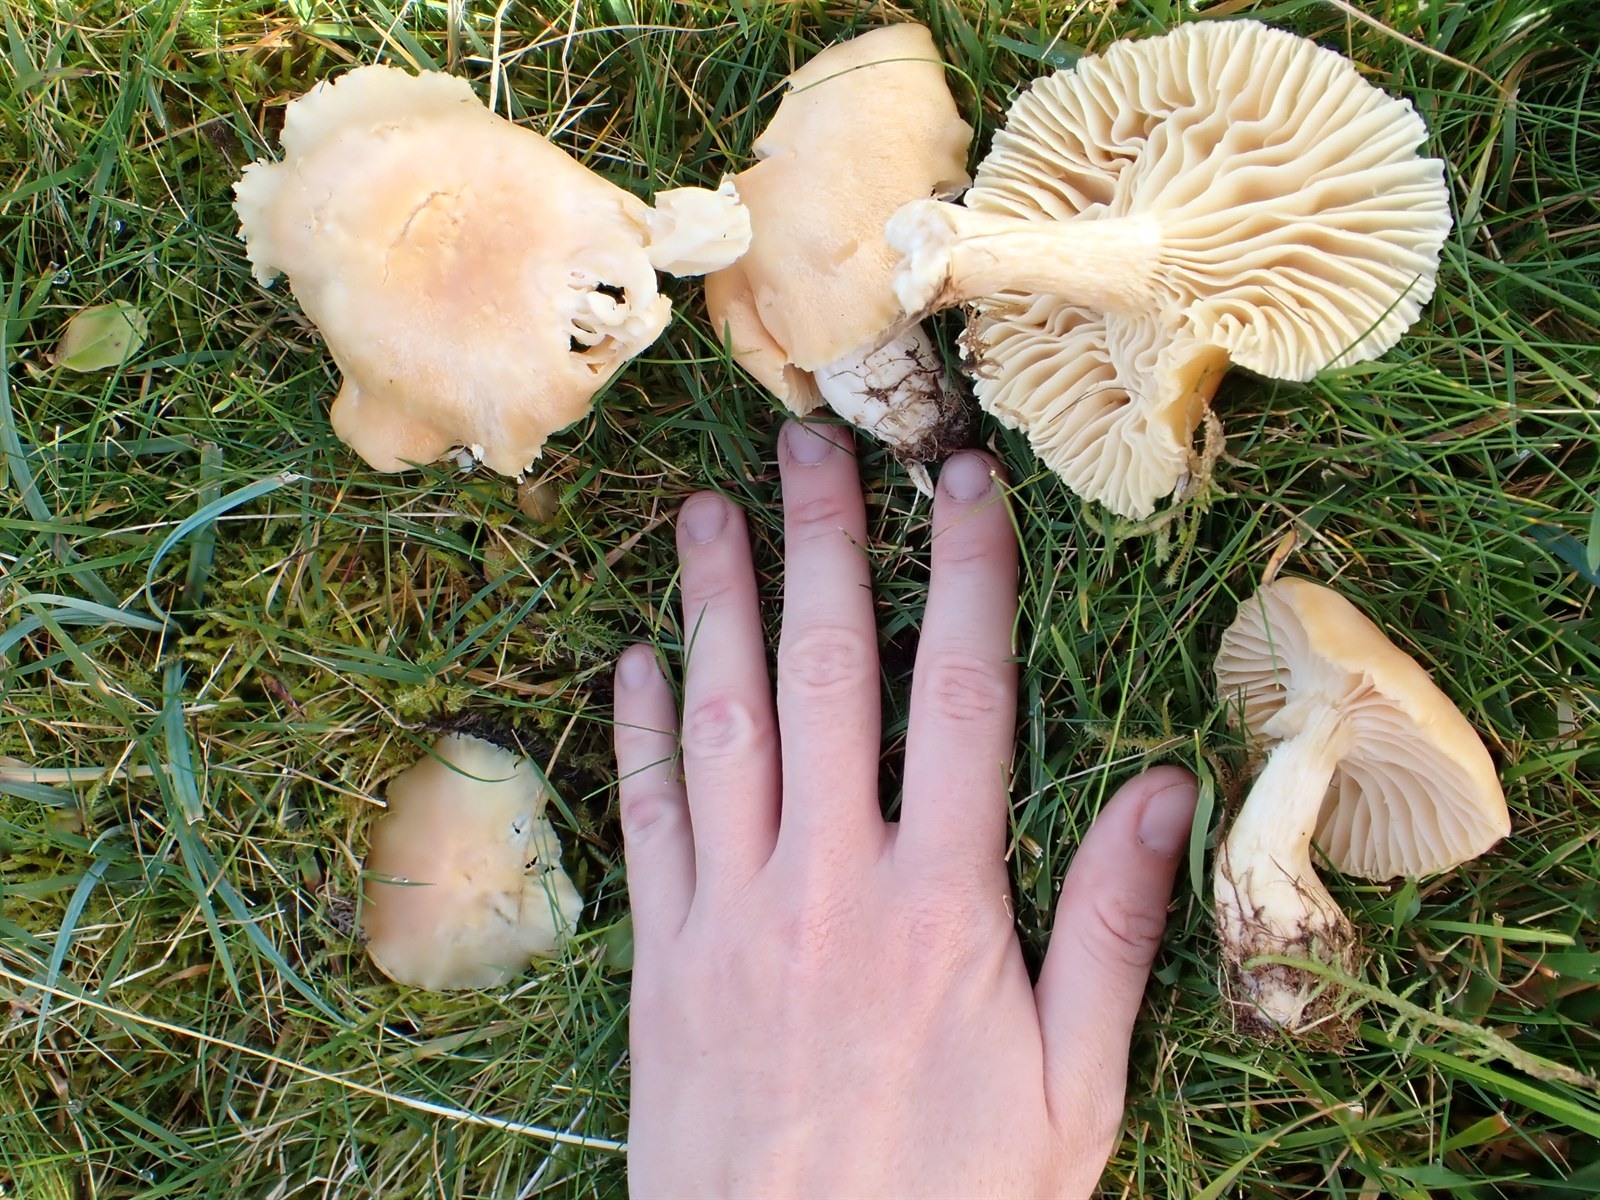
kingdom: Fungi
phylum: Basidiomycota
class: Agaricomycetes
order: Agaricales
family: Hygrophoraceae
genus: Cuphophyllus
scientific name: Cuphophyllus pratensis
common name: Meadow waxcap
